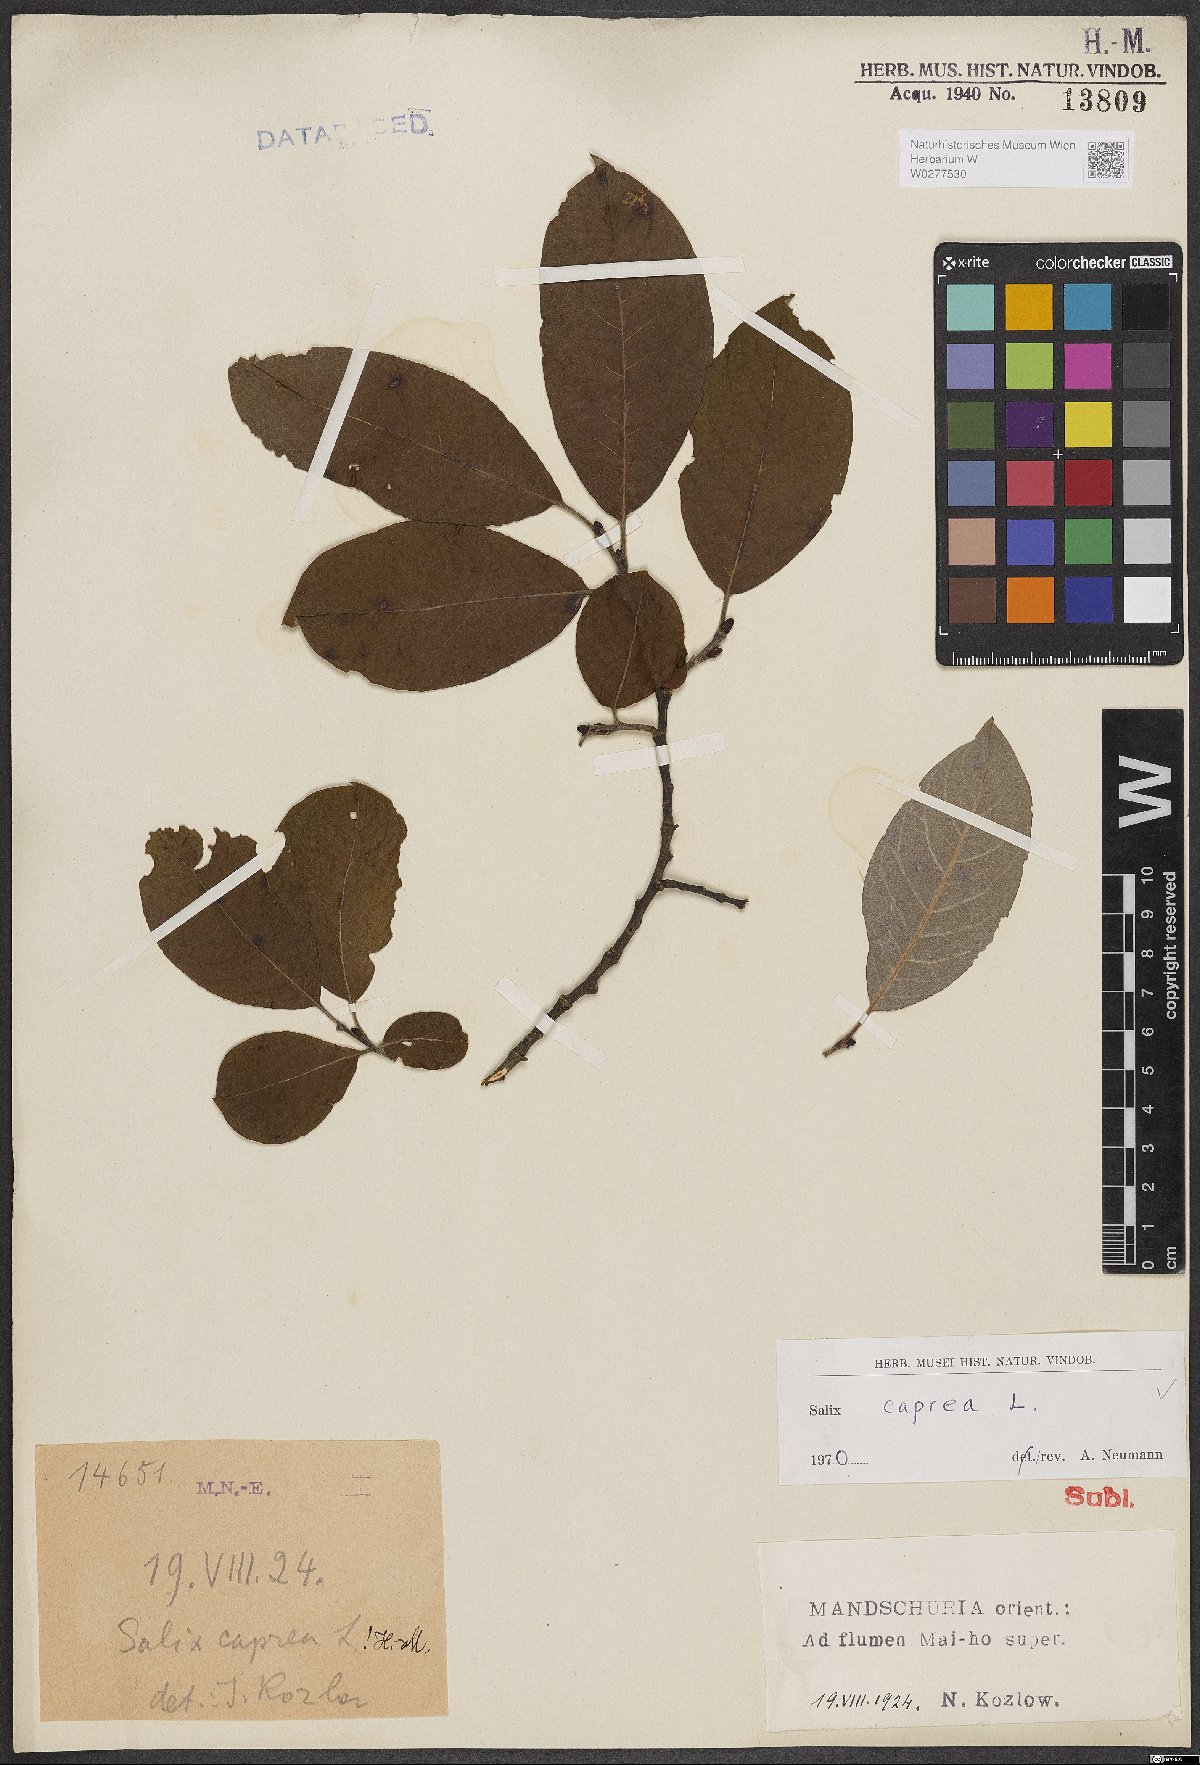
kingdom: Plantae
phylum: Tracheophyta
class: Magnoliopsida
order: Malpighiales
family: Salicaceae
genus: Salix
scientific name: Salix caprea
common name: Goat willow
